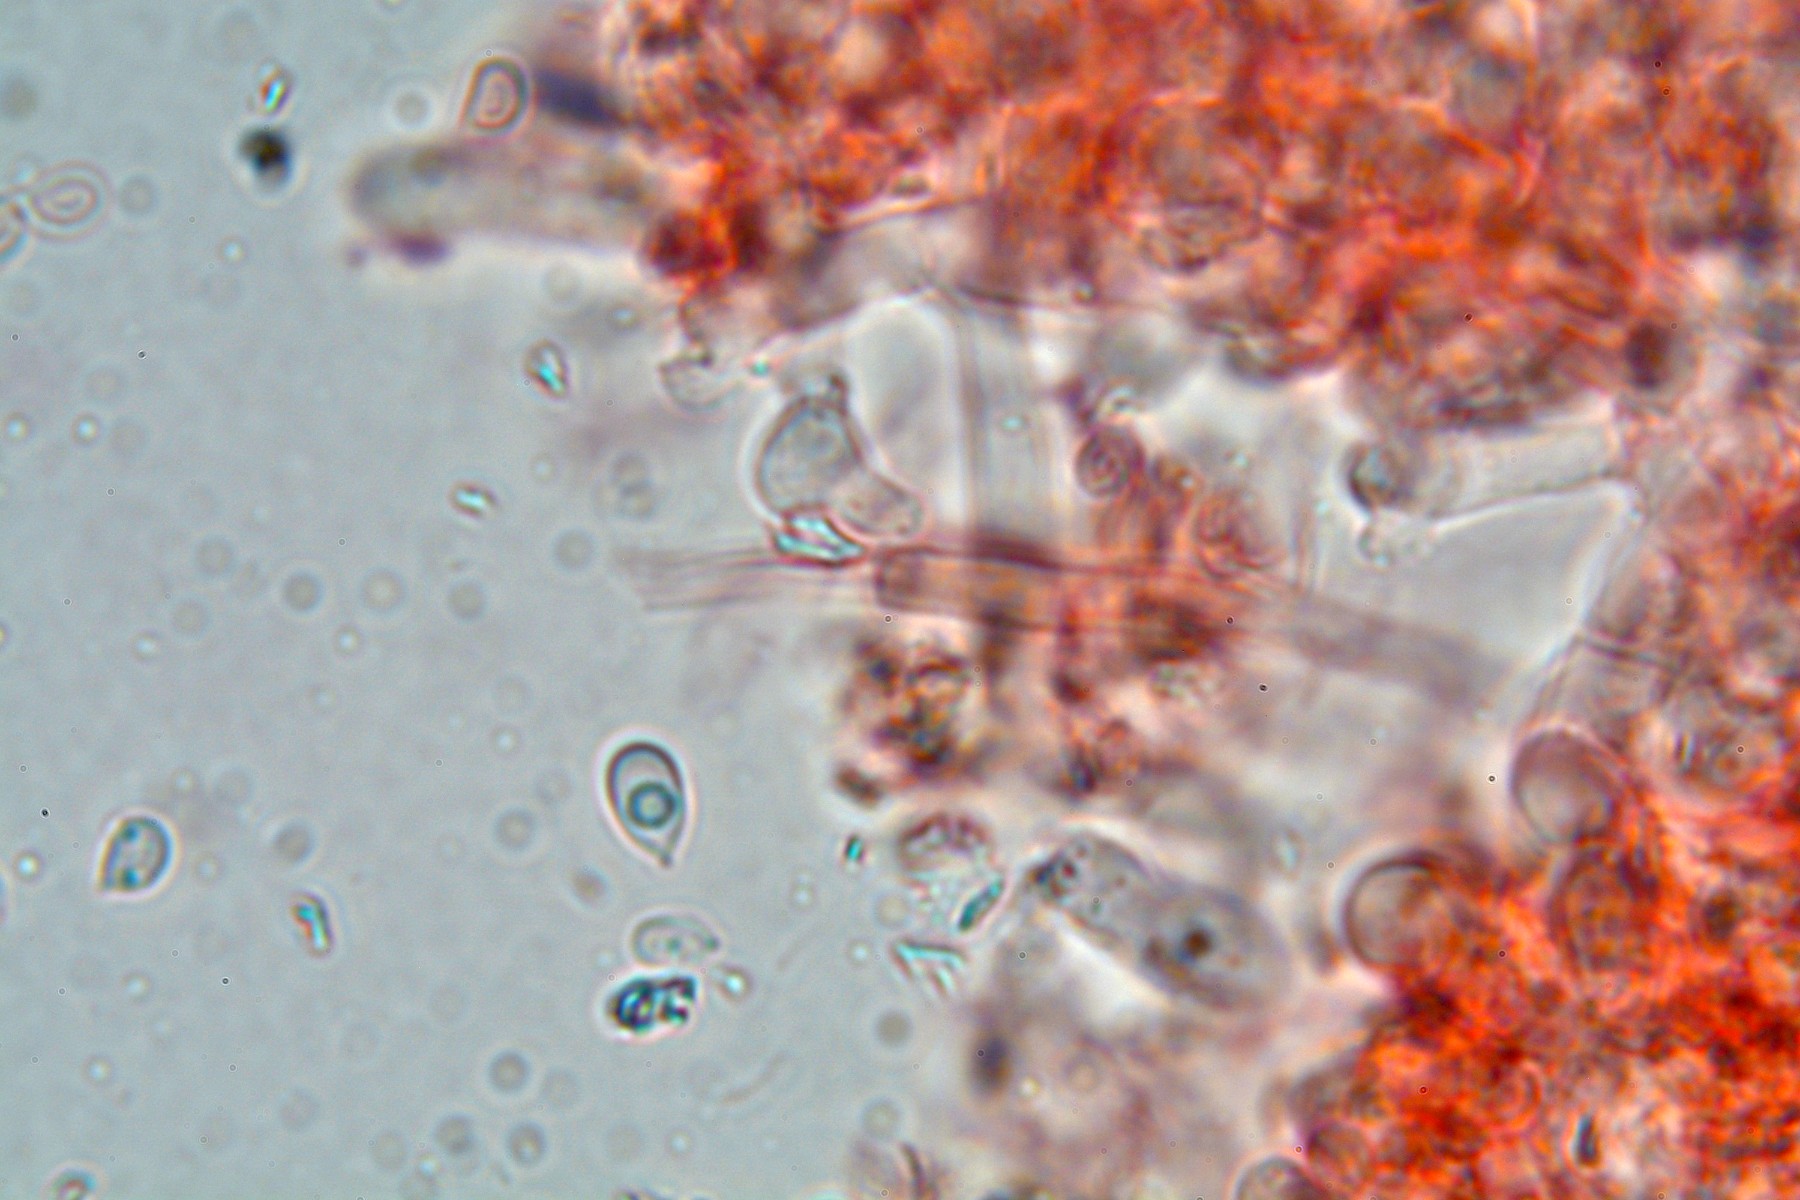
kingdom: Fungi
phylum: Basidiomycota
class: Agaricomycetes
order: Trechisporales
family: Sistotremataceae
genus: Trechispora
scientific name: Trechispora cohaerens
